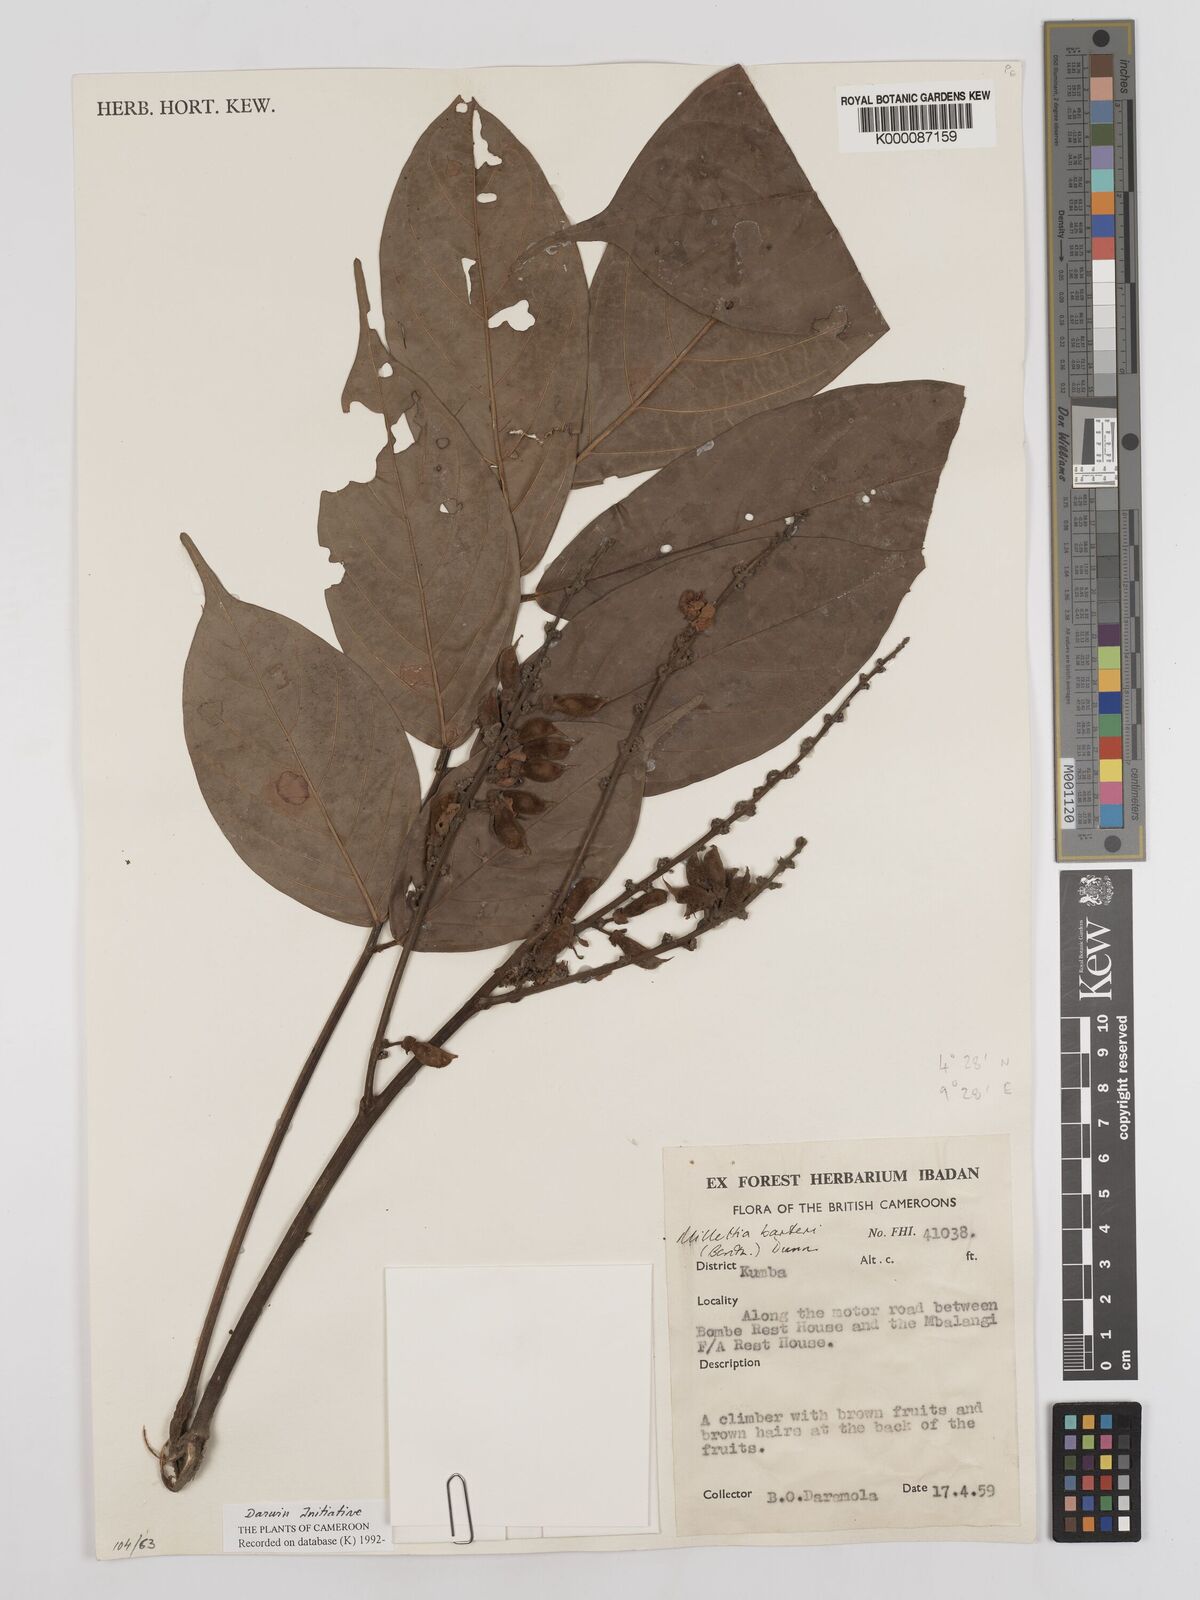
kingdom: Plantae
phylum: Tracheophyta
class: Magnoliopsida
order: Fabales
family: Fabaceae
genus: Millettia
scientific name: Millettia barteri
